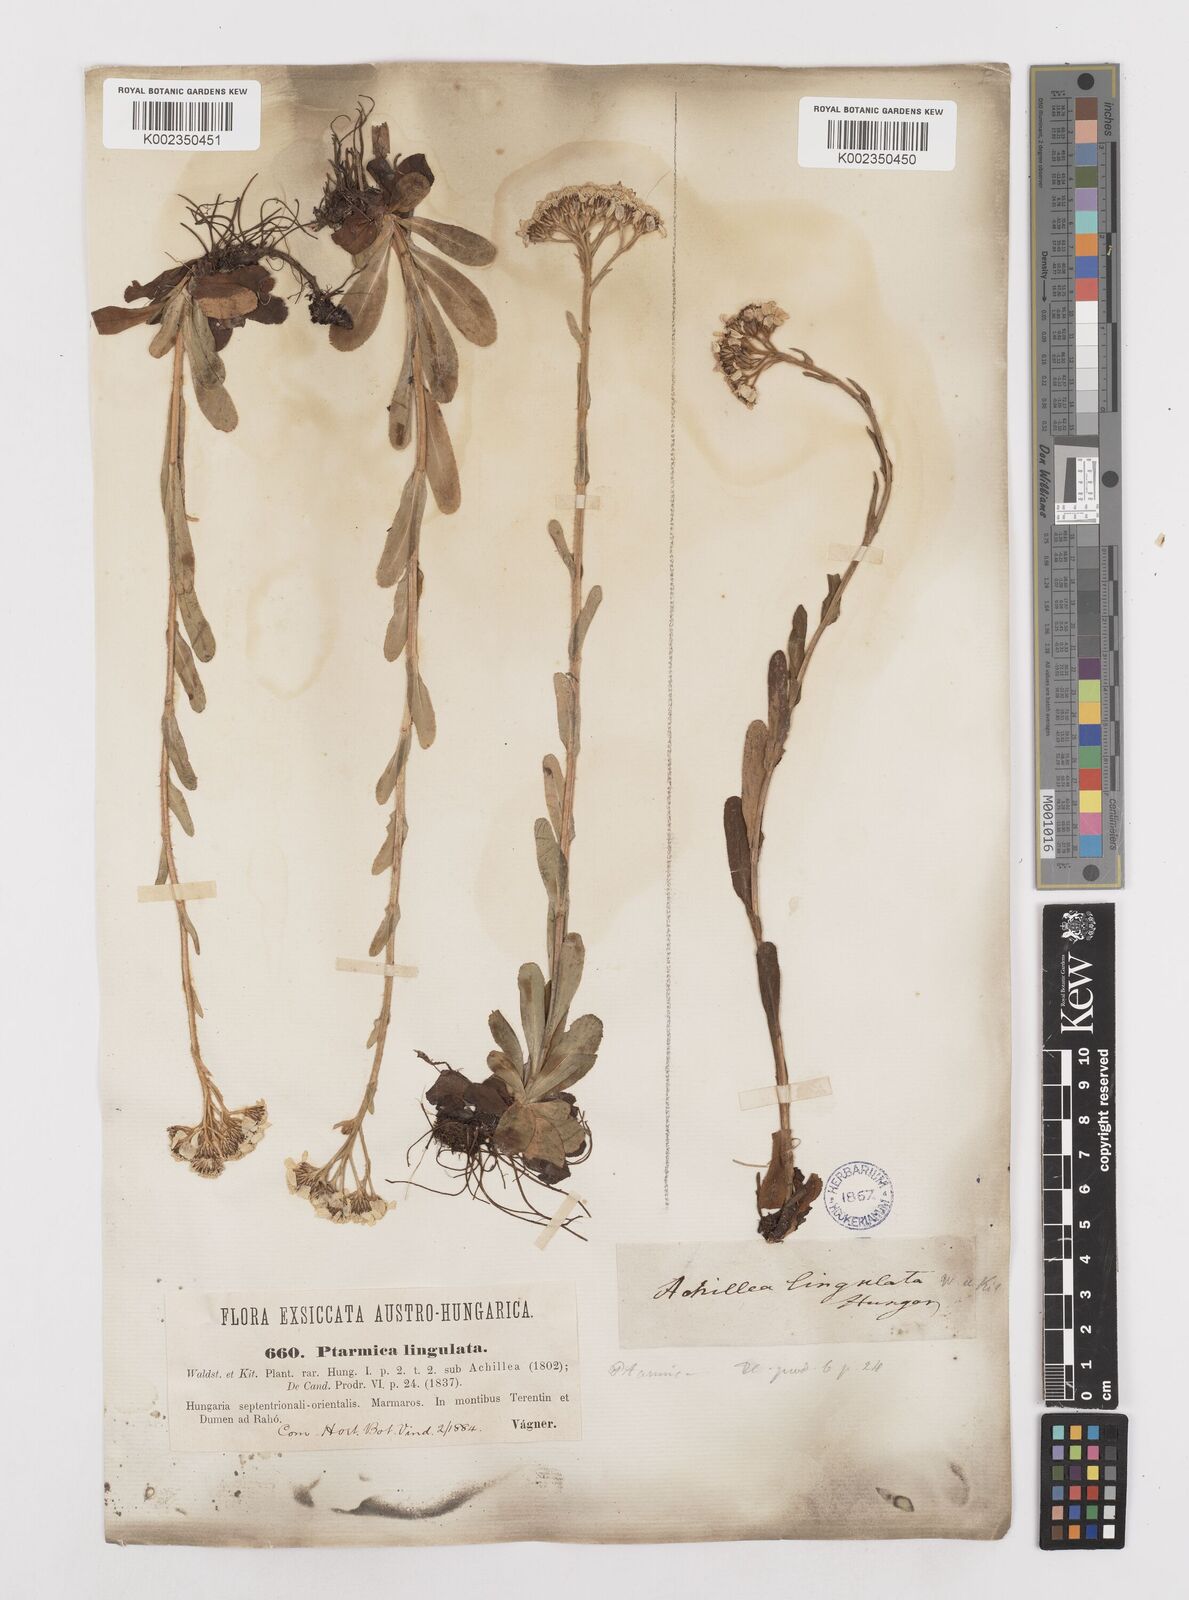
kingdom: Plantae
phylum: Tracheophyta
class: Magnoliopsida
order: Asterales
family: Asteraceae
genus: Achillea
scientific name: Achillea lingulata
